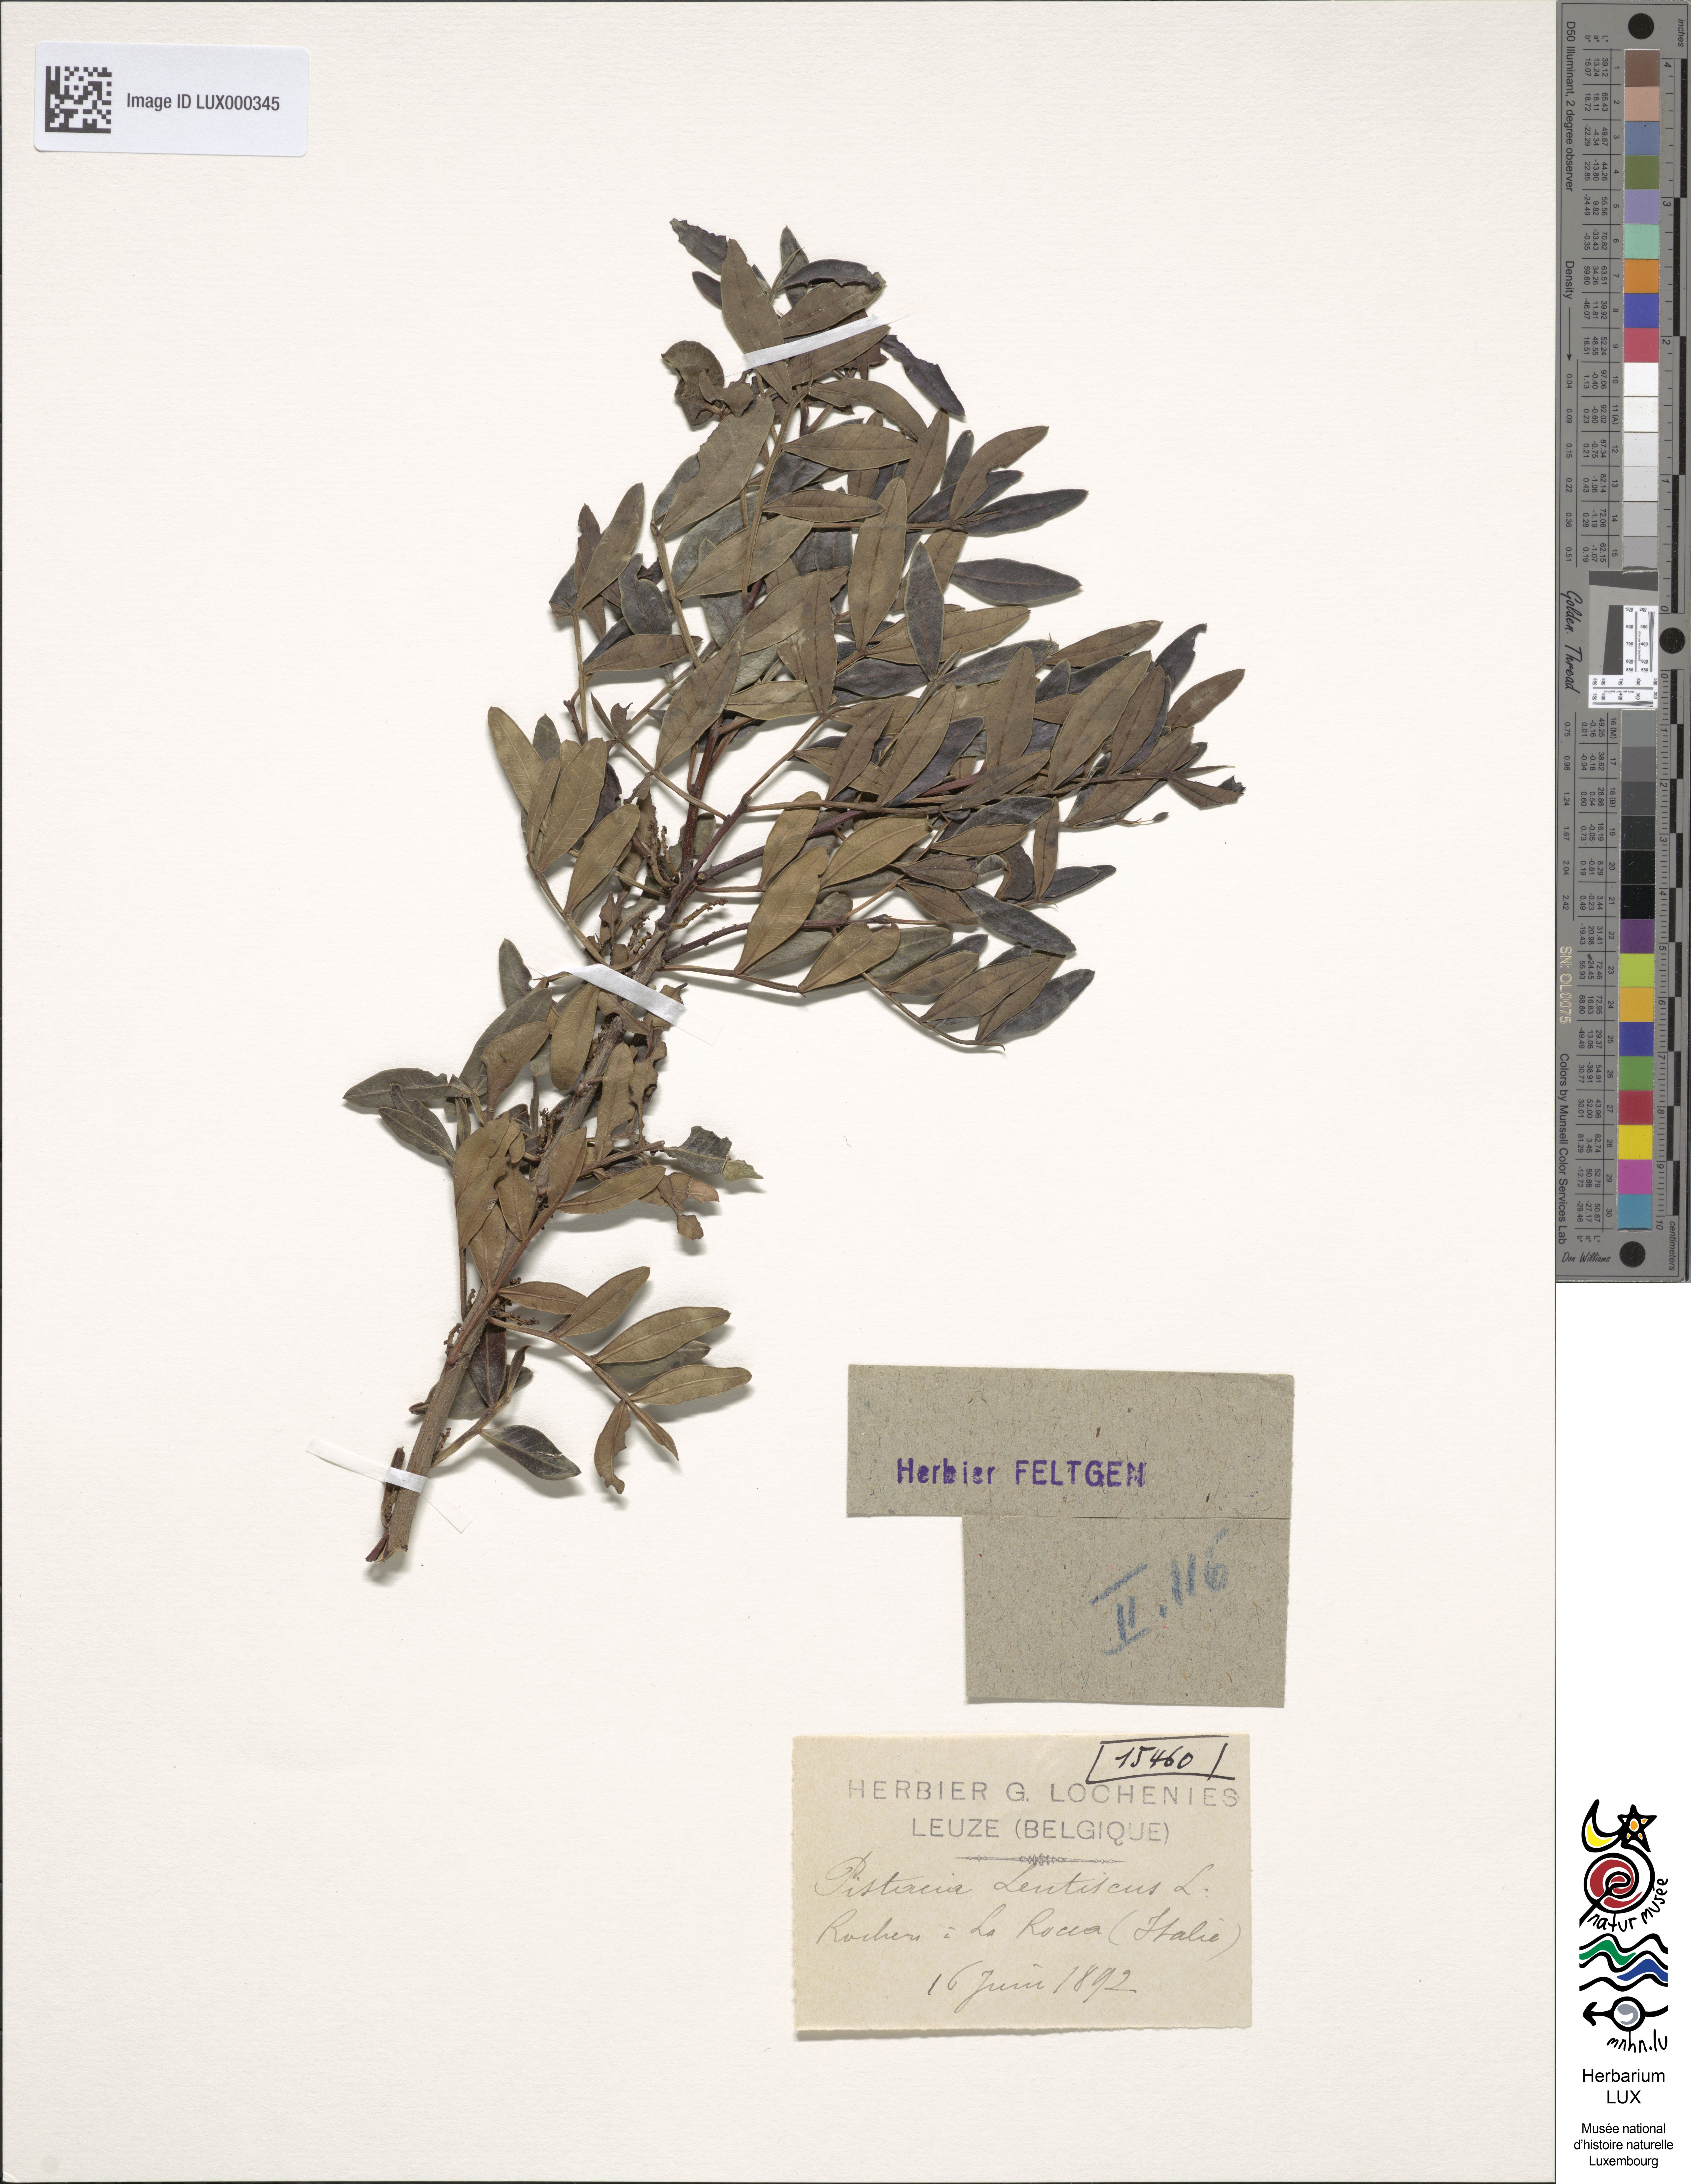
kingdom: Plantae
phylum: Tracheophyta
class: Magnoliopsida
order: Sapindales
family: Anacardiaceae
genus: Pistacia
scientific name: Pistacia lentiscus
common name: Lentisk
